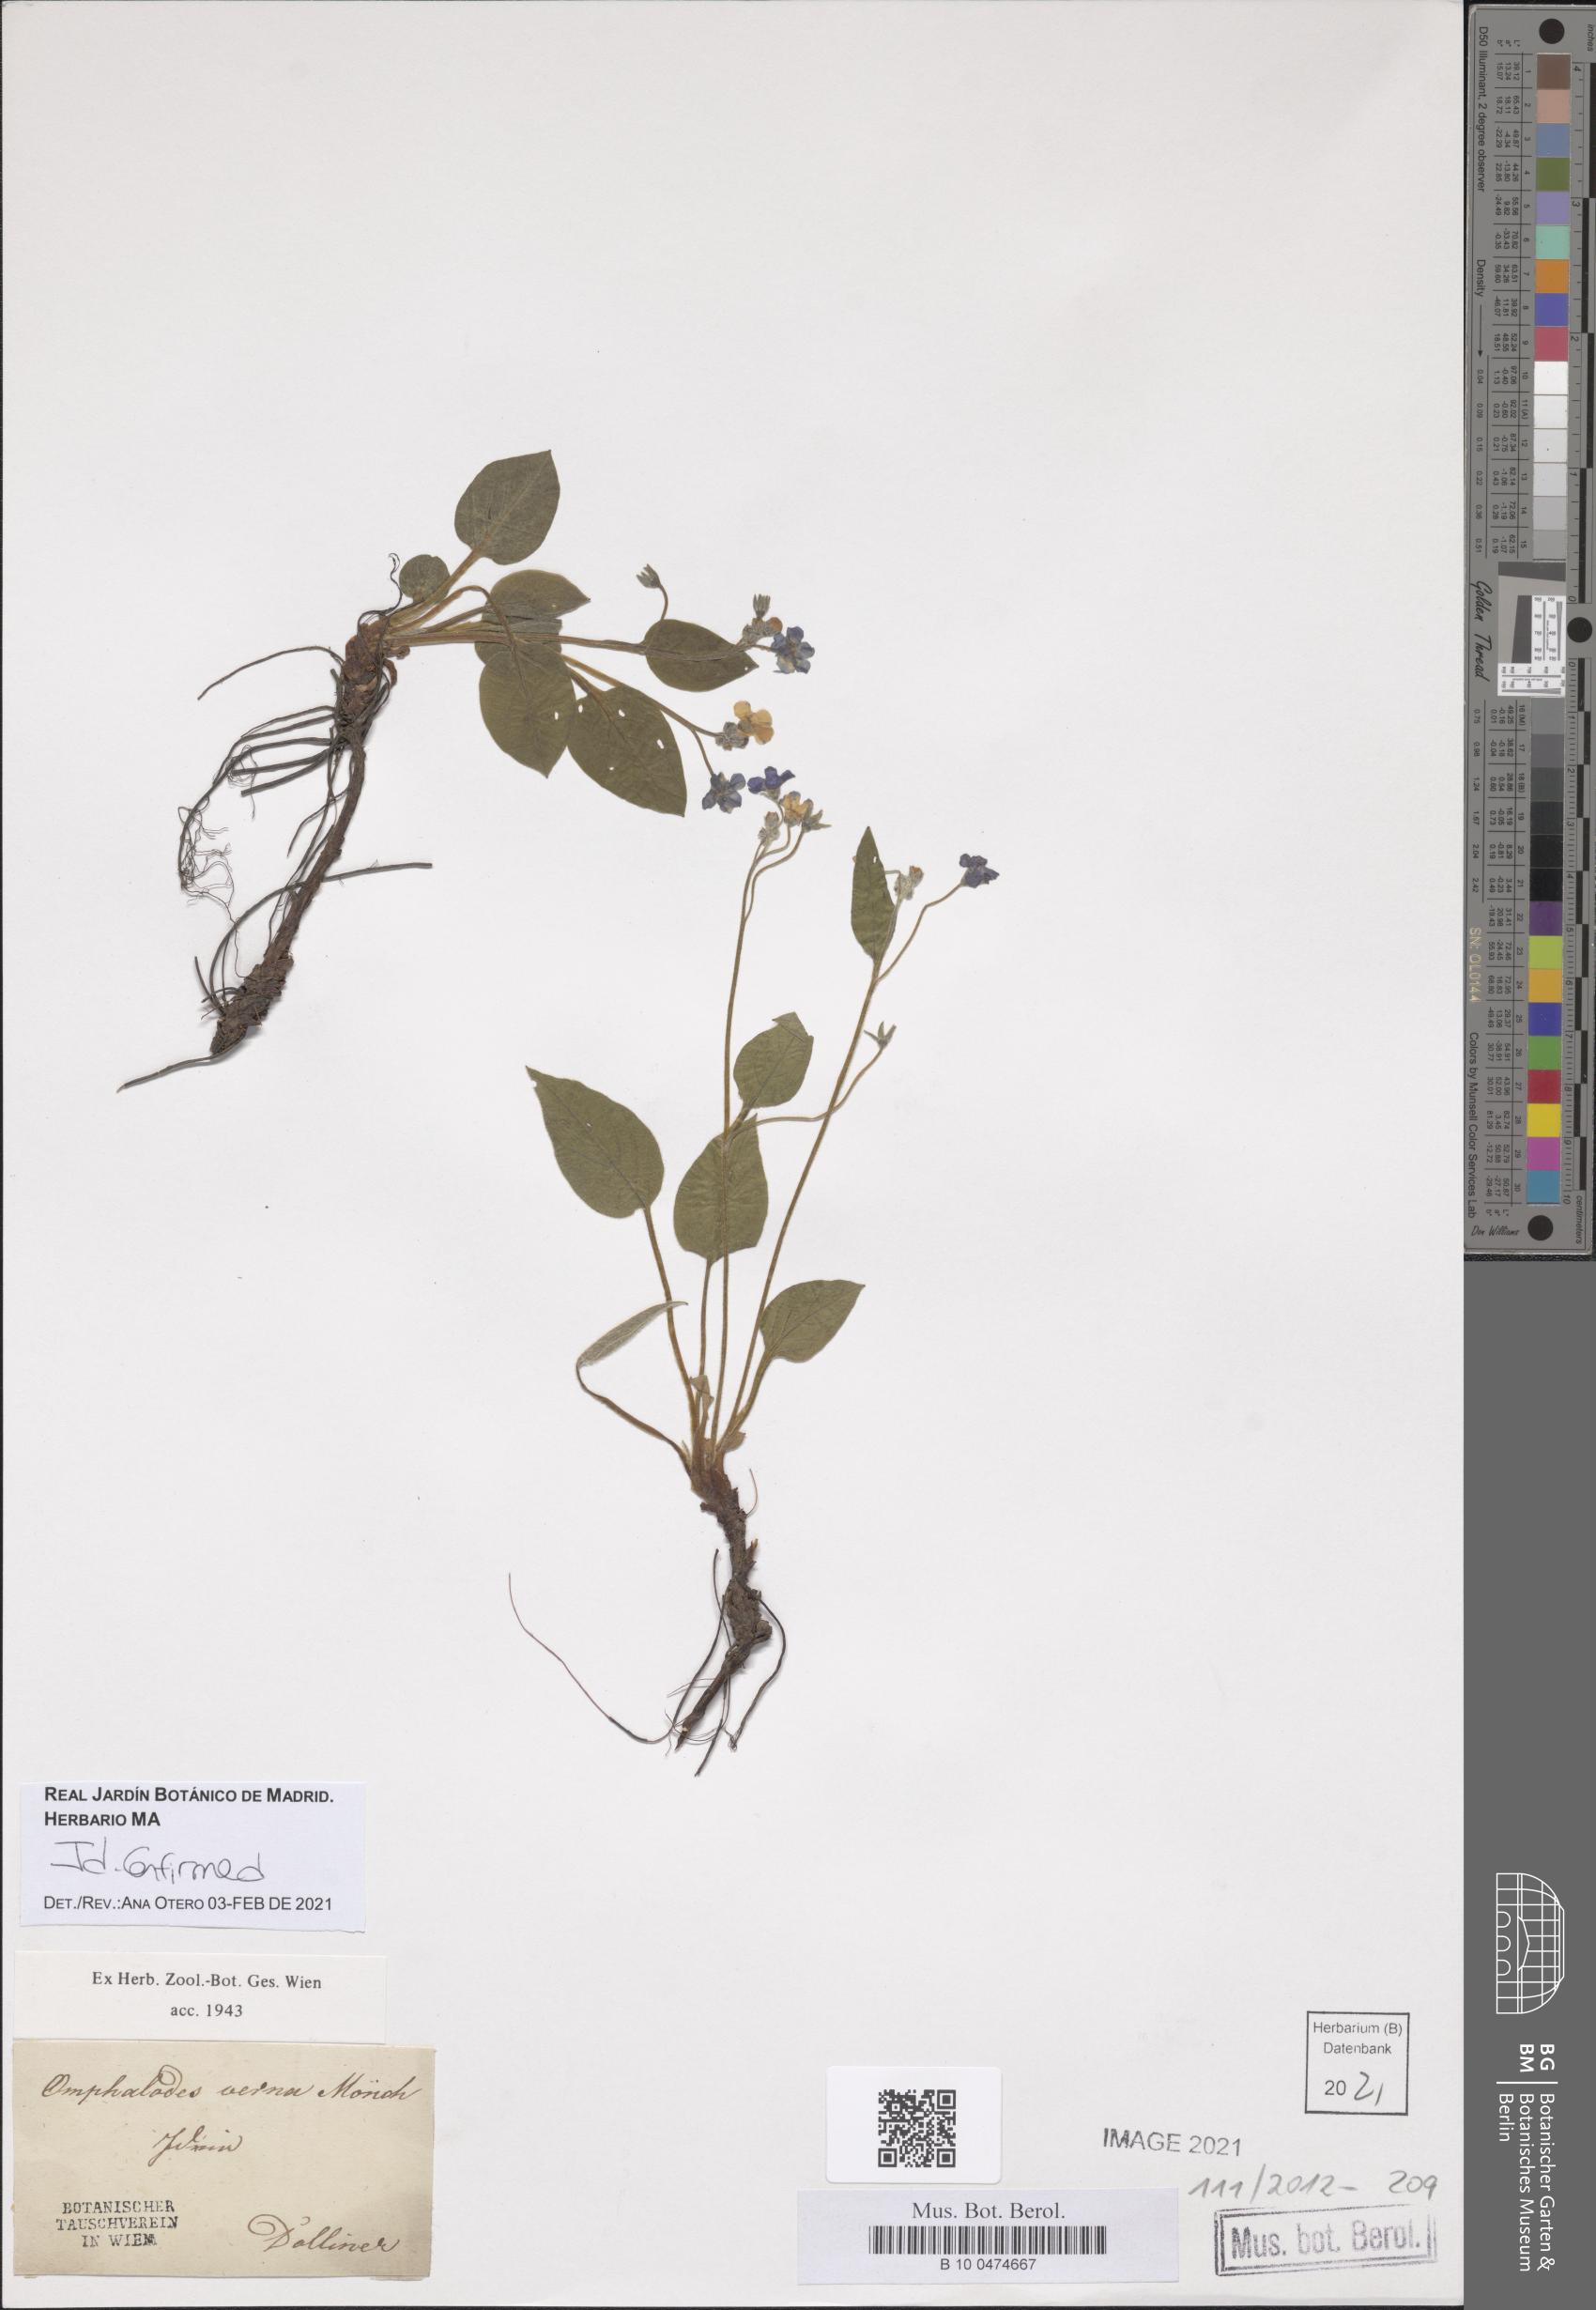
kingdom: Plantae
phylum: Tracheophyta
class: Magnoliopsida
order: Boraginales
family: Boraginaceae
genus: Omphalodes
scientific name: Omphalodes verna
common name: Blue-eyed-mary
